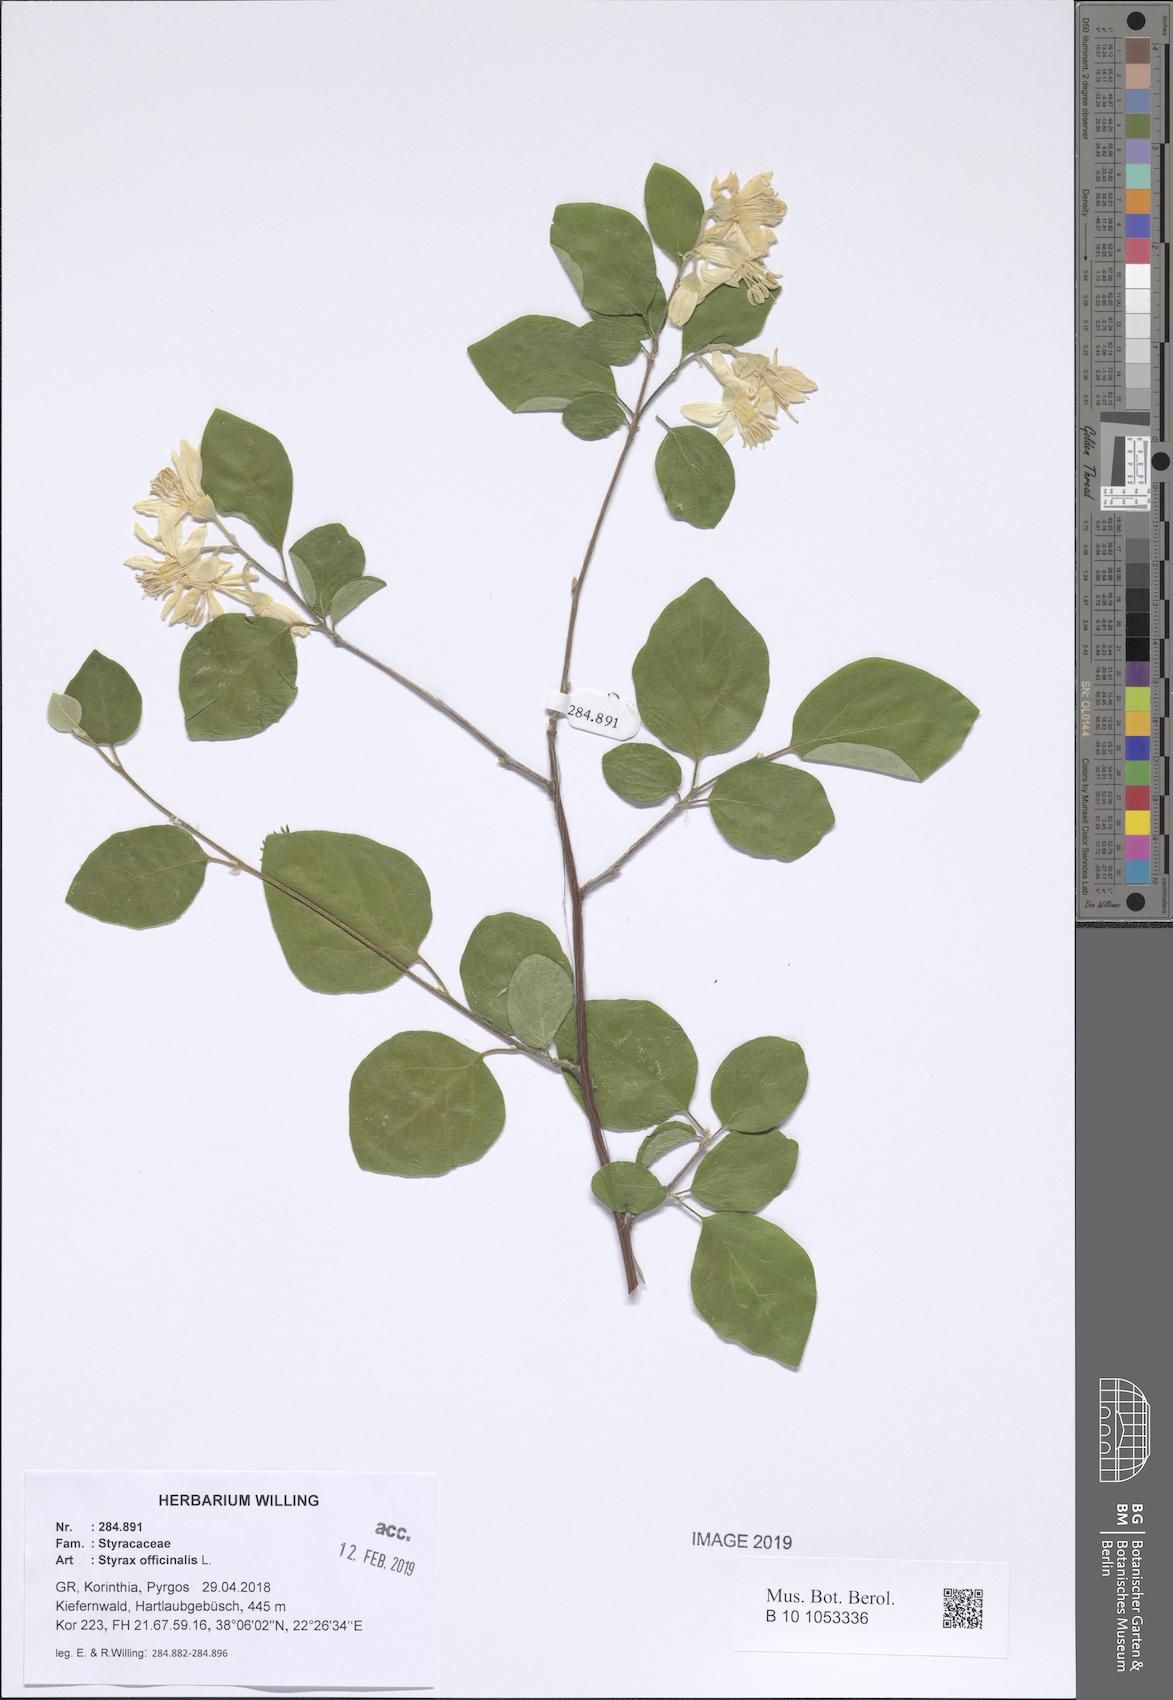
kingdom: Plantae
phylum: Tracheophyta
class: Magnoliopsida
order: Ericales
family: Styracaceae
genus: Styrax
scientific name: Styrax officinalis
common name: Storax
